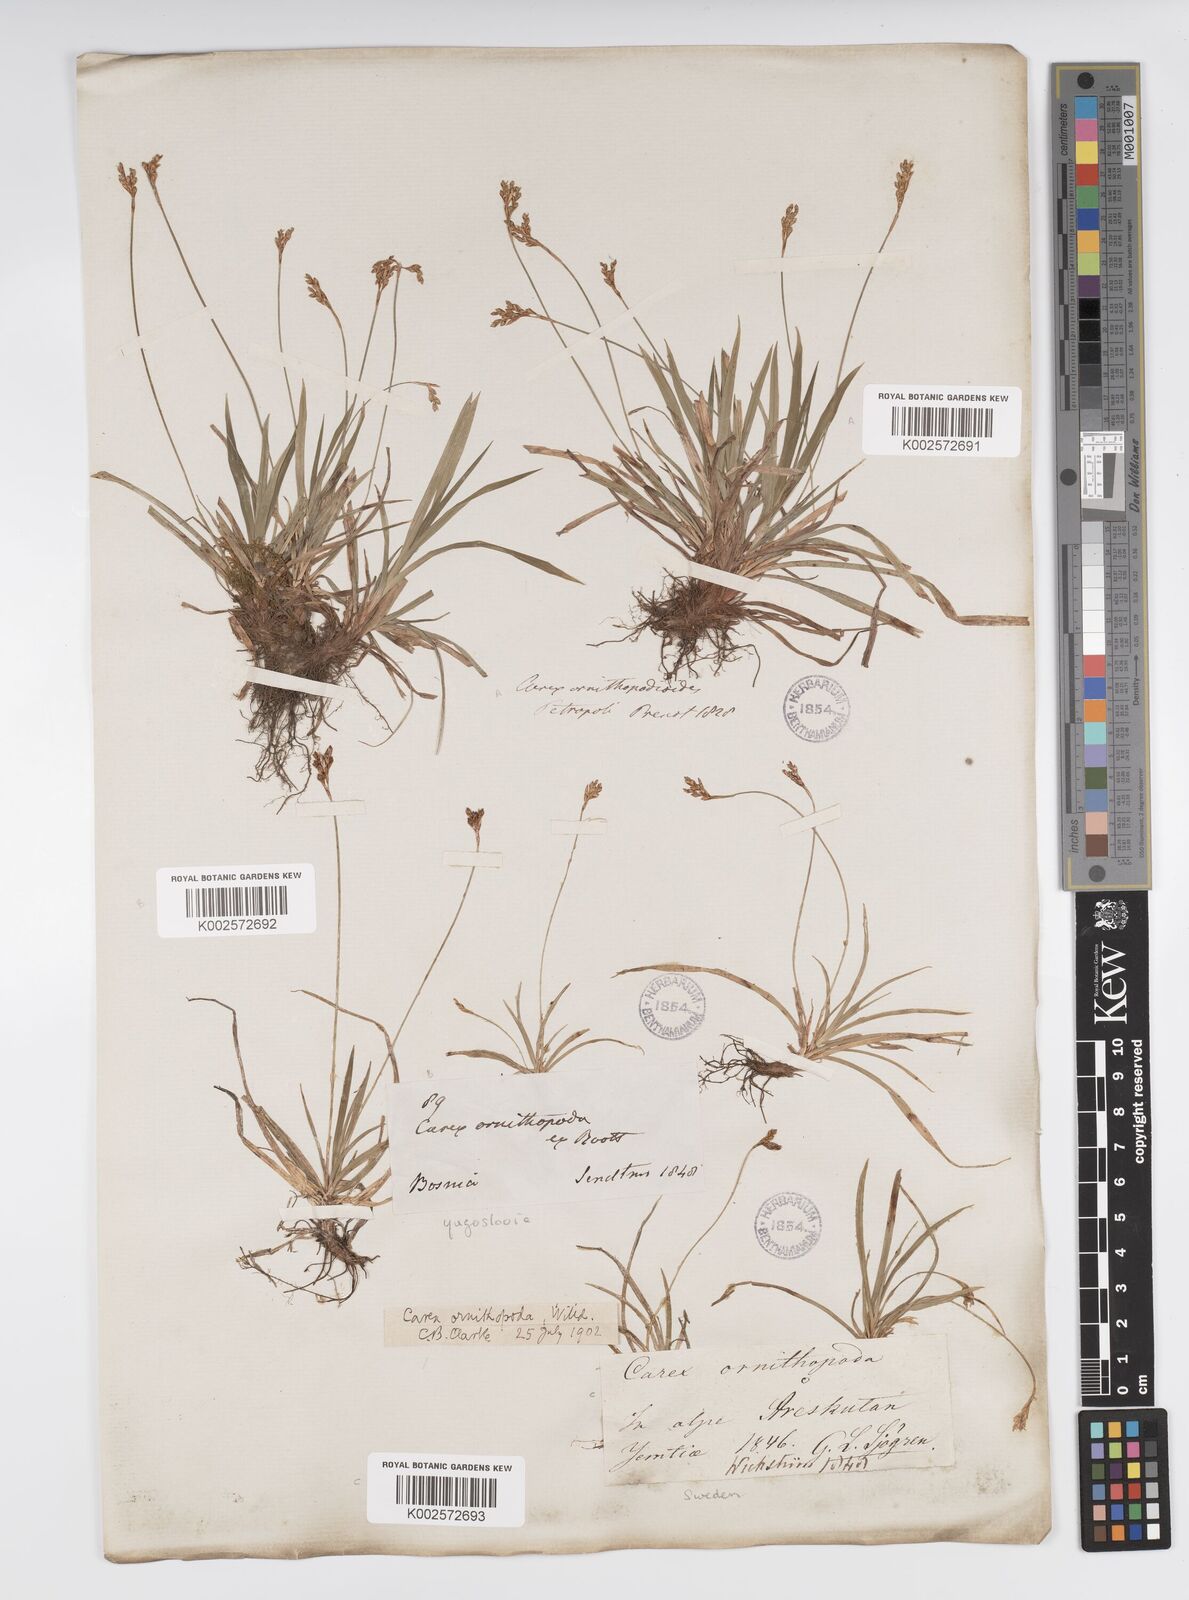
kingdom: Plantae
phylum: Tracheophyta
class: Liliopsida
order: Poales
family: Cyperaceae
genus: Carex
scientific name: Carex ornithopoda
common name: Bird's-foot sedge
